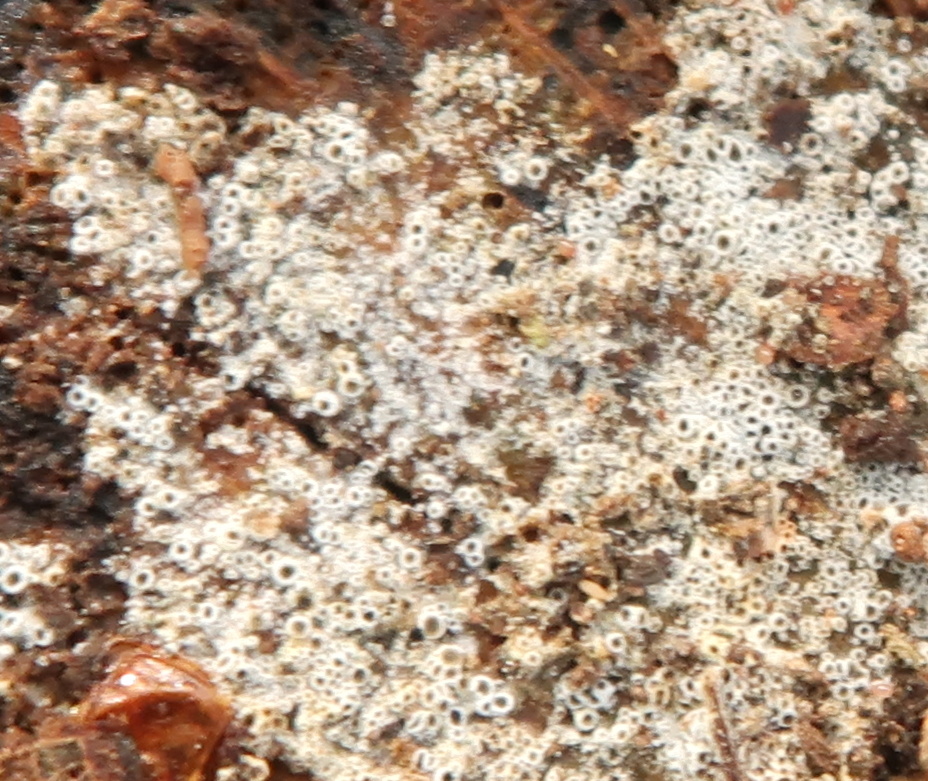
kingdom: Fungi
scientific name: Fungi
